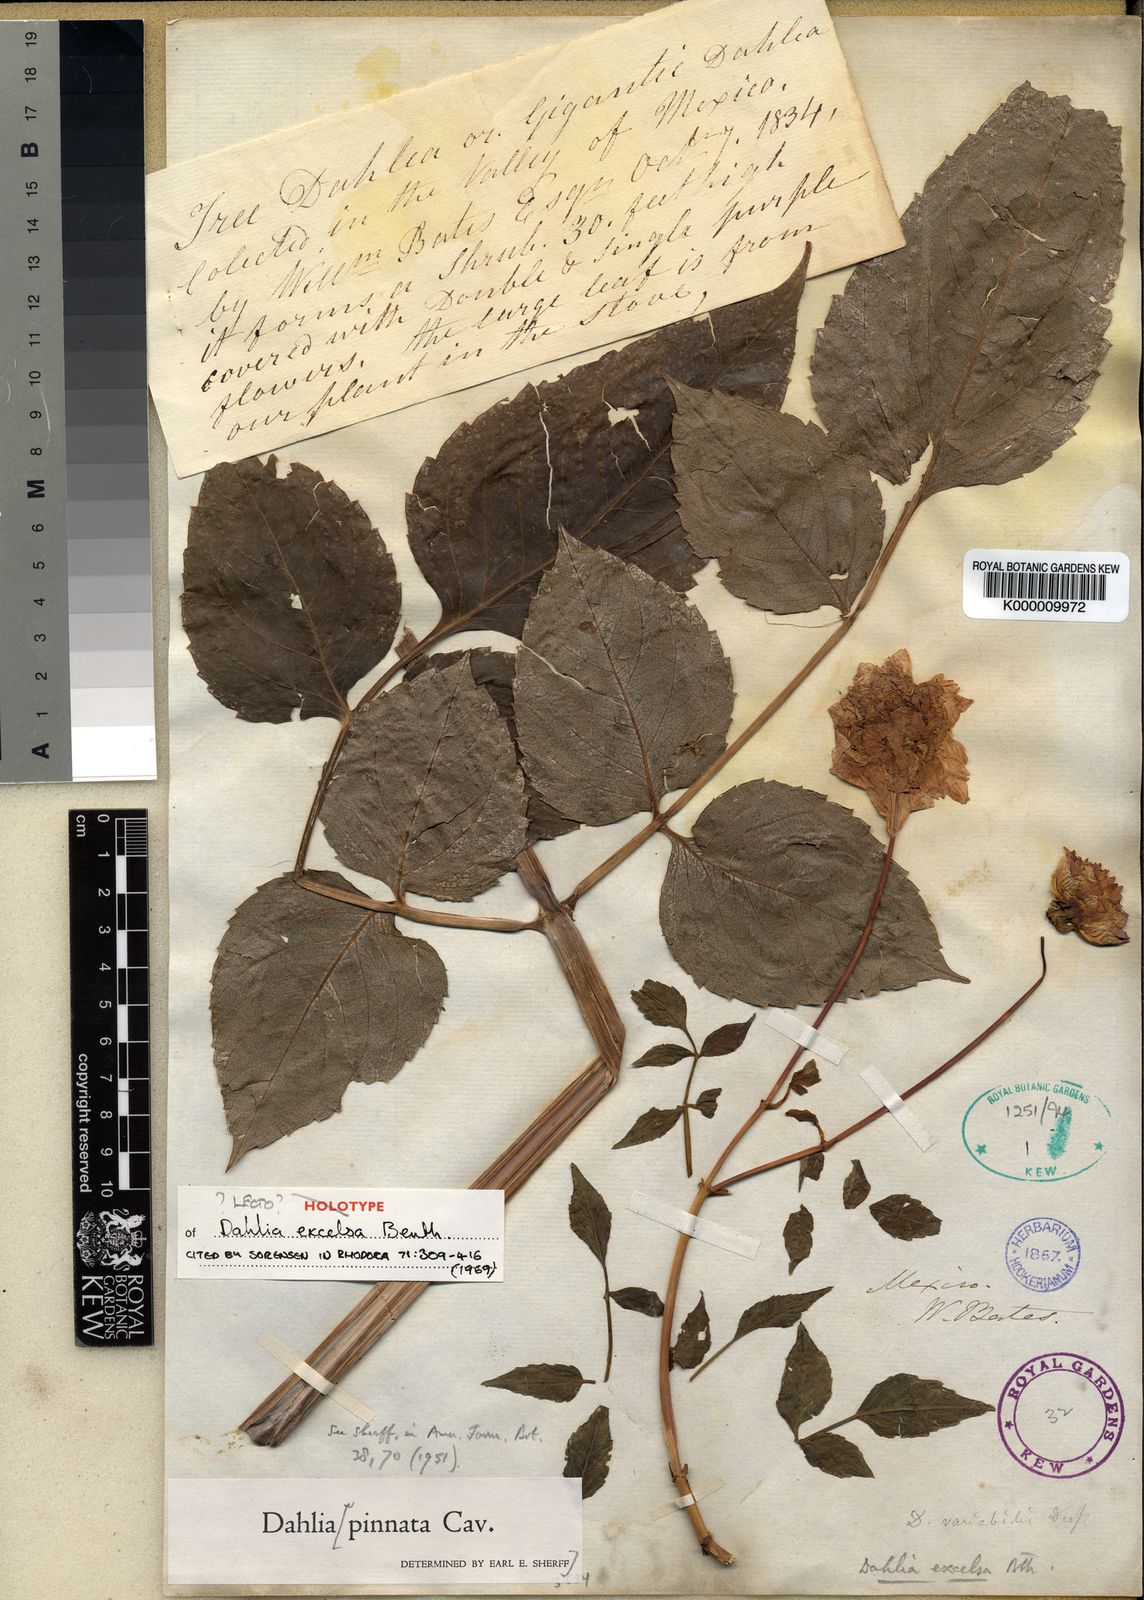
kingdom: Plantae
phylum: Tracheophyta
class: Magnoliopsida
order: Asterales
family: Asteraceae
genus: Dahlia
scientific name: Dahlia excelsa
